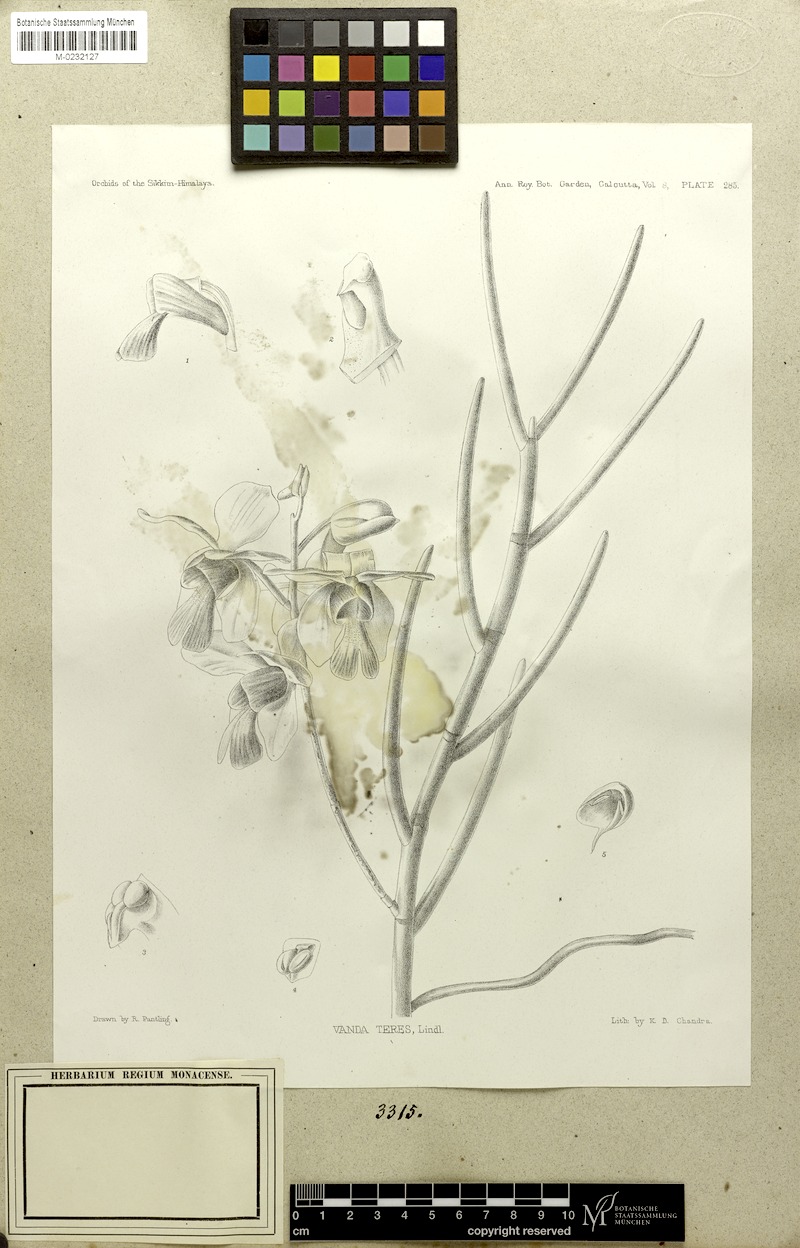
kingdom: Plantae
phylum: Tracheophyta
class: Liliopsida
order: Asparagales
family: Orchidaceae
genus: Papilionanthe
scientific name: Papilionanthe teres
